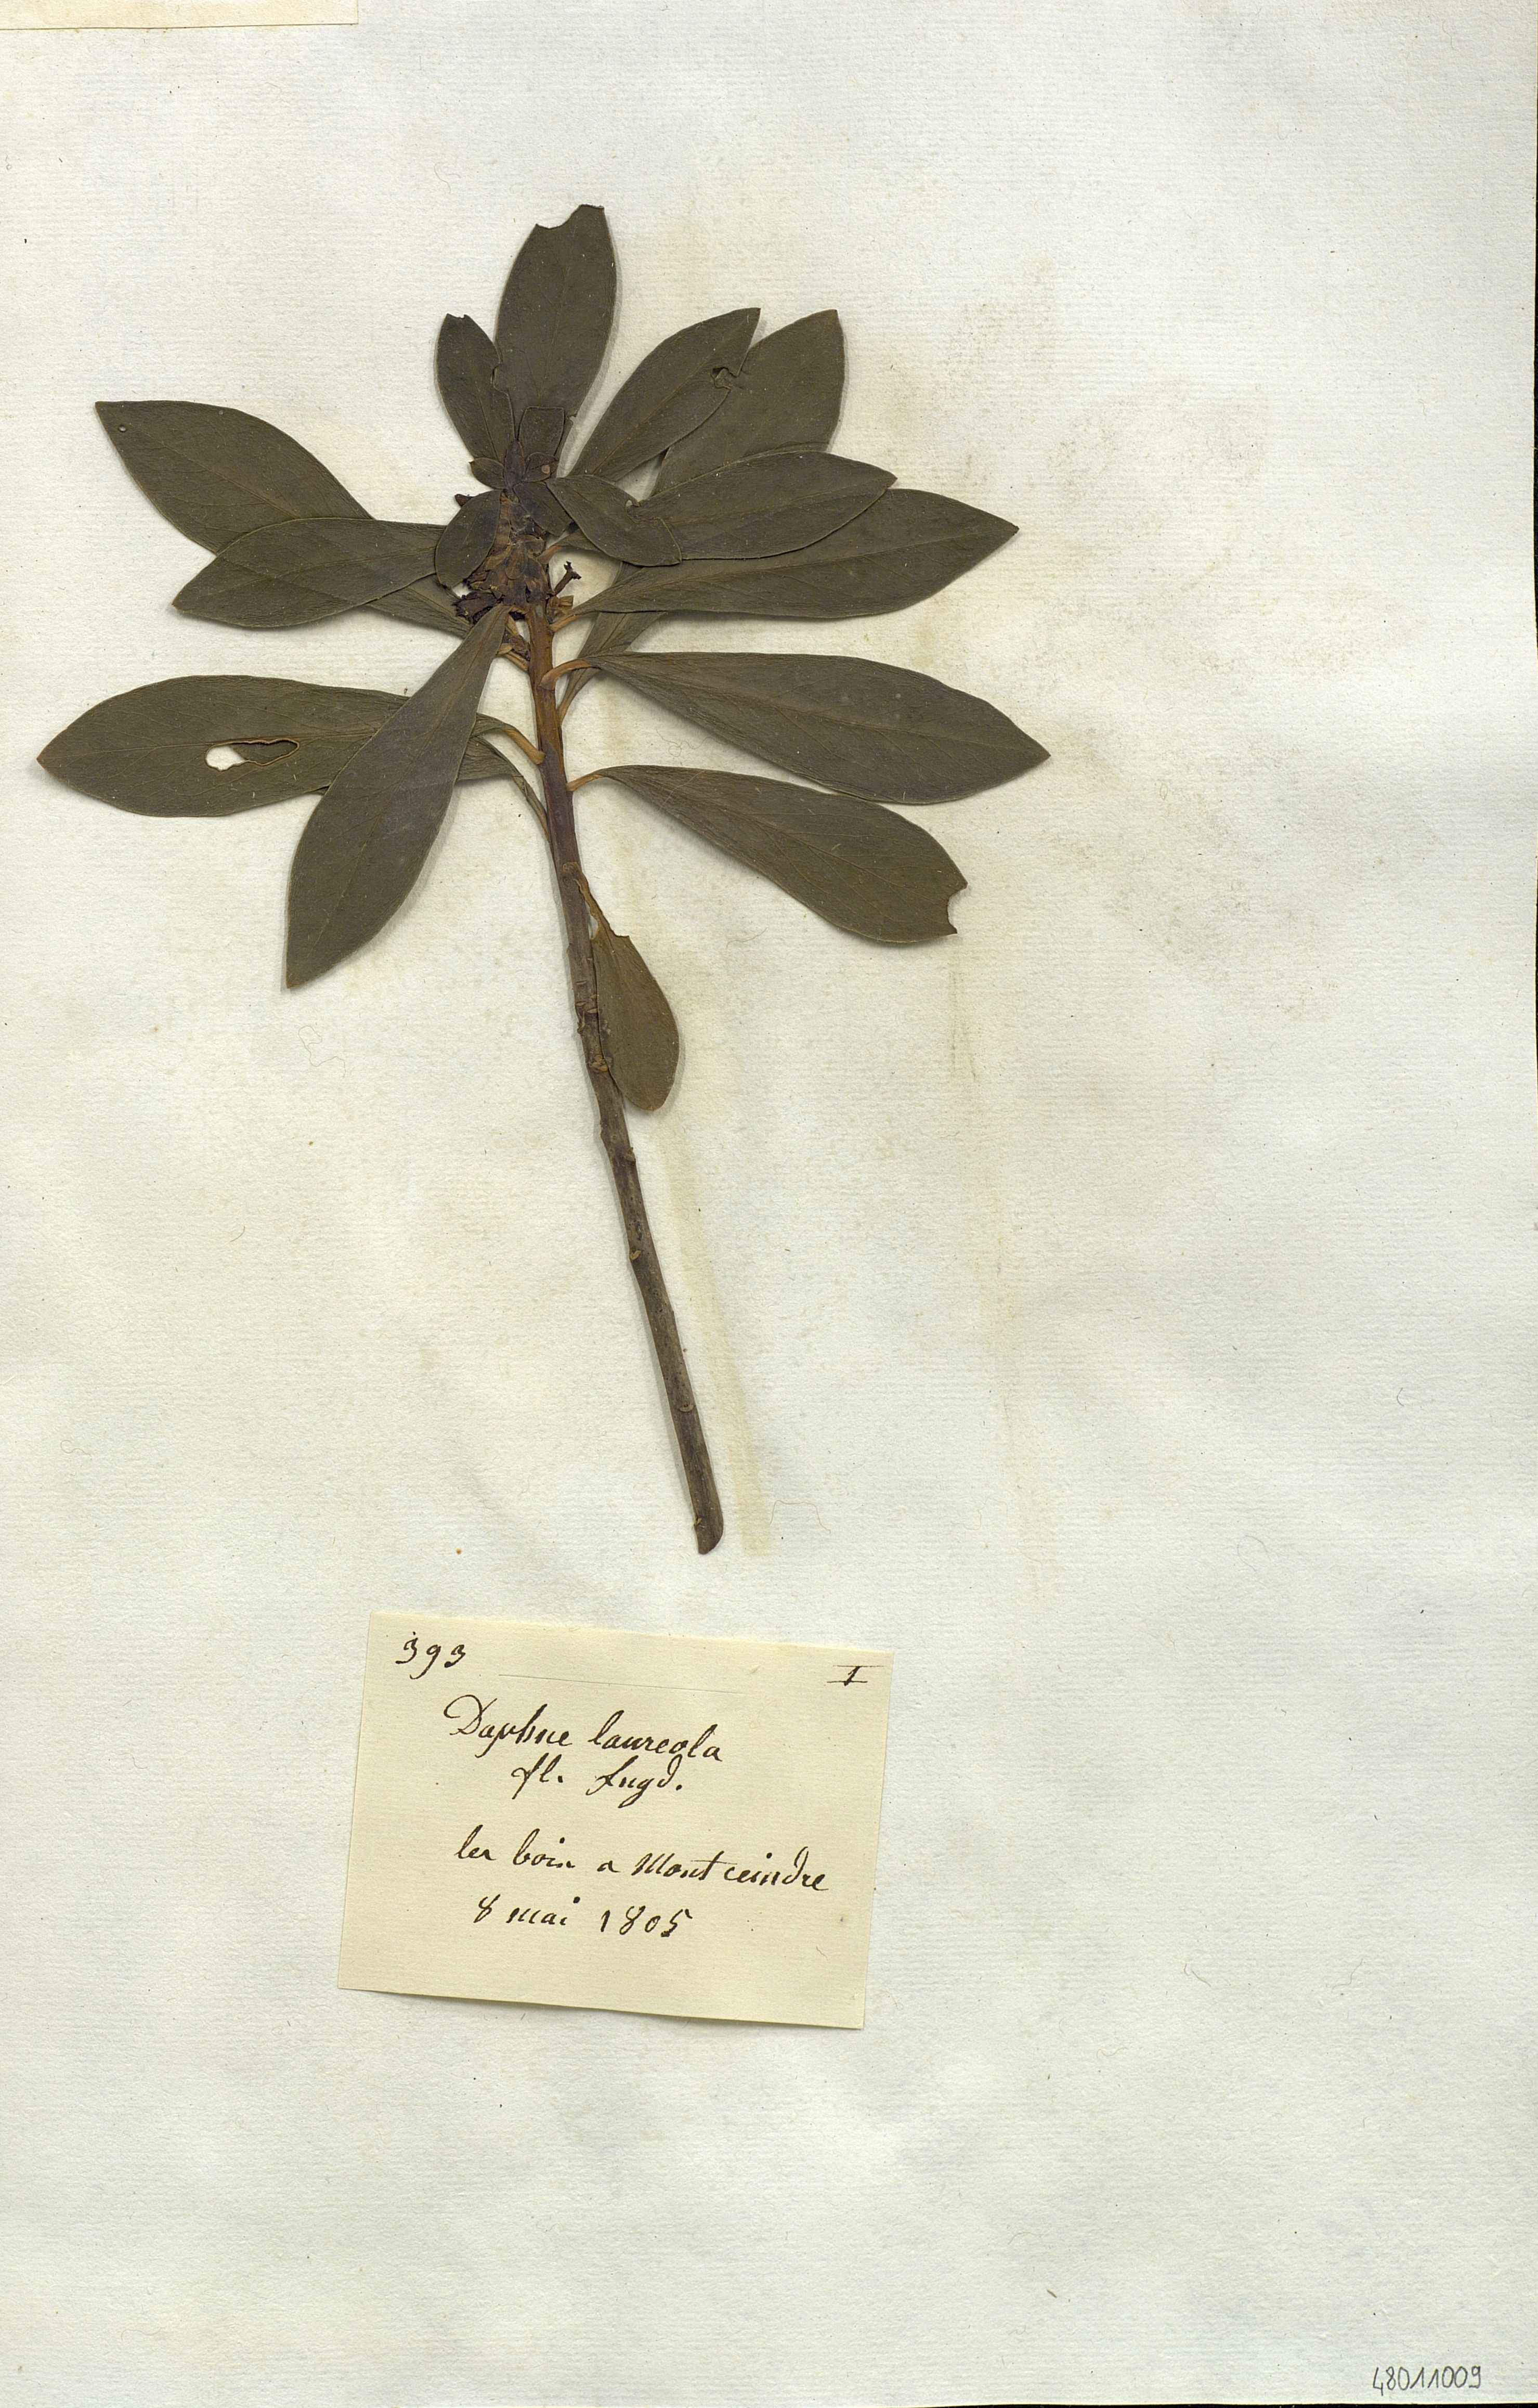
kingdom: Plantae
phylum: Tracheophyta
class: Magnoliopsida
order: Malvales
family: Thymelaeaceae
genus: Daphne
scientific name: Daphne laureola
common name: Spurge-laurel
